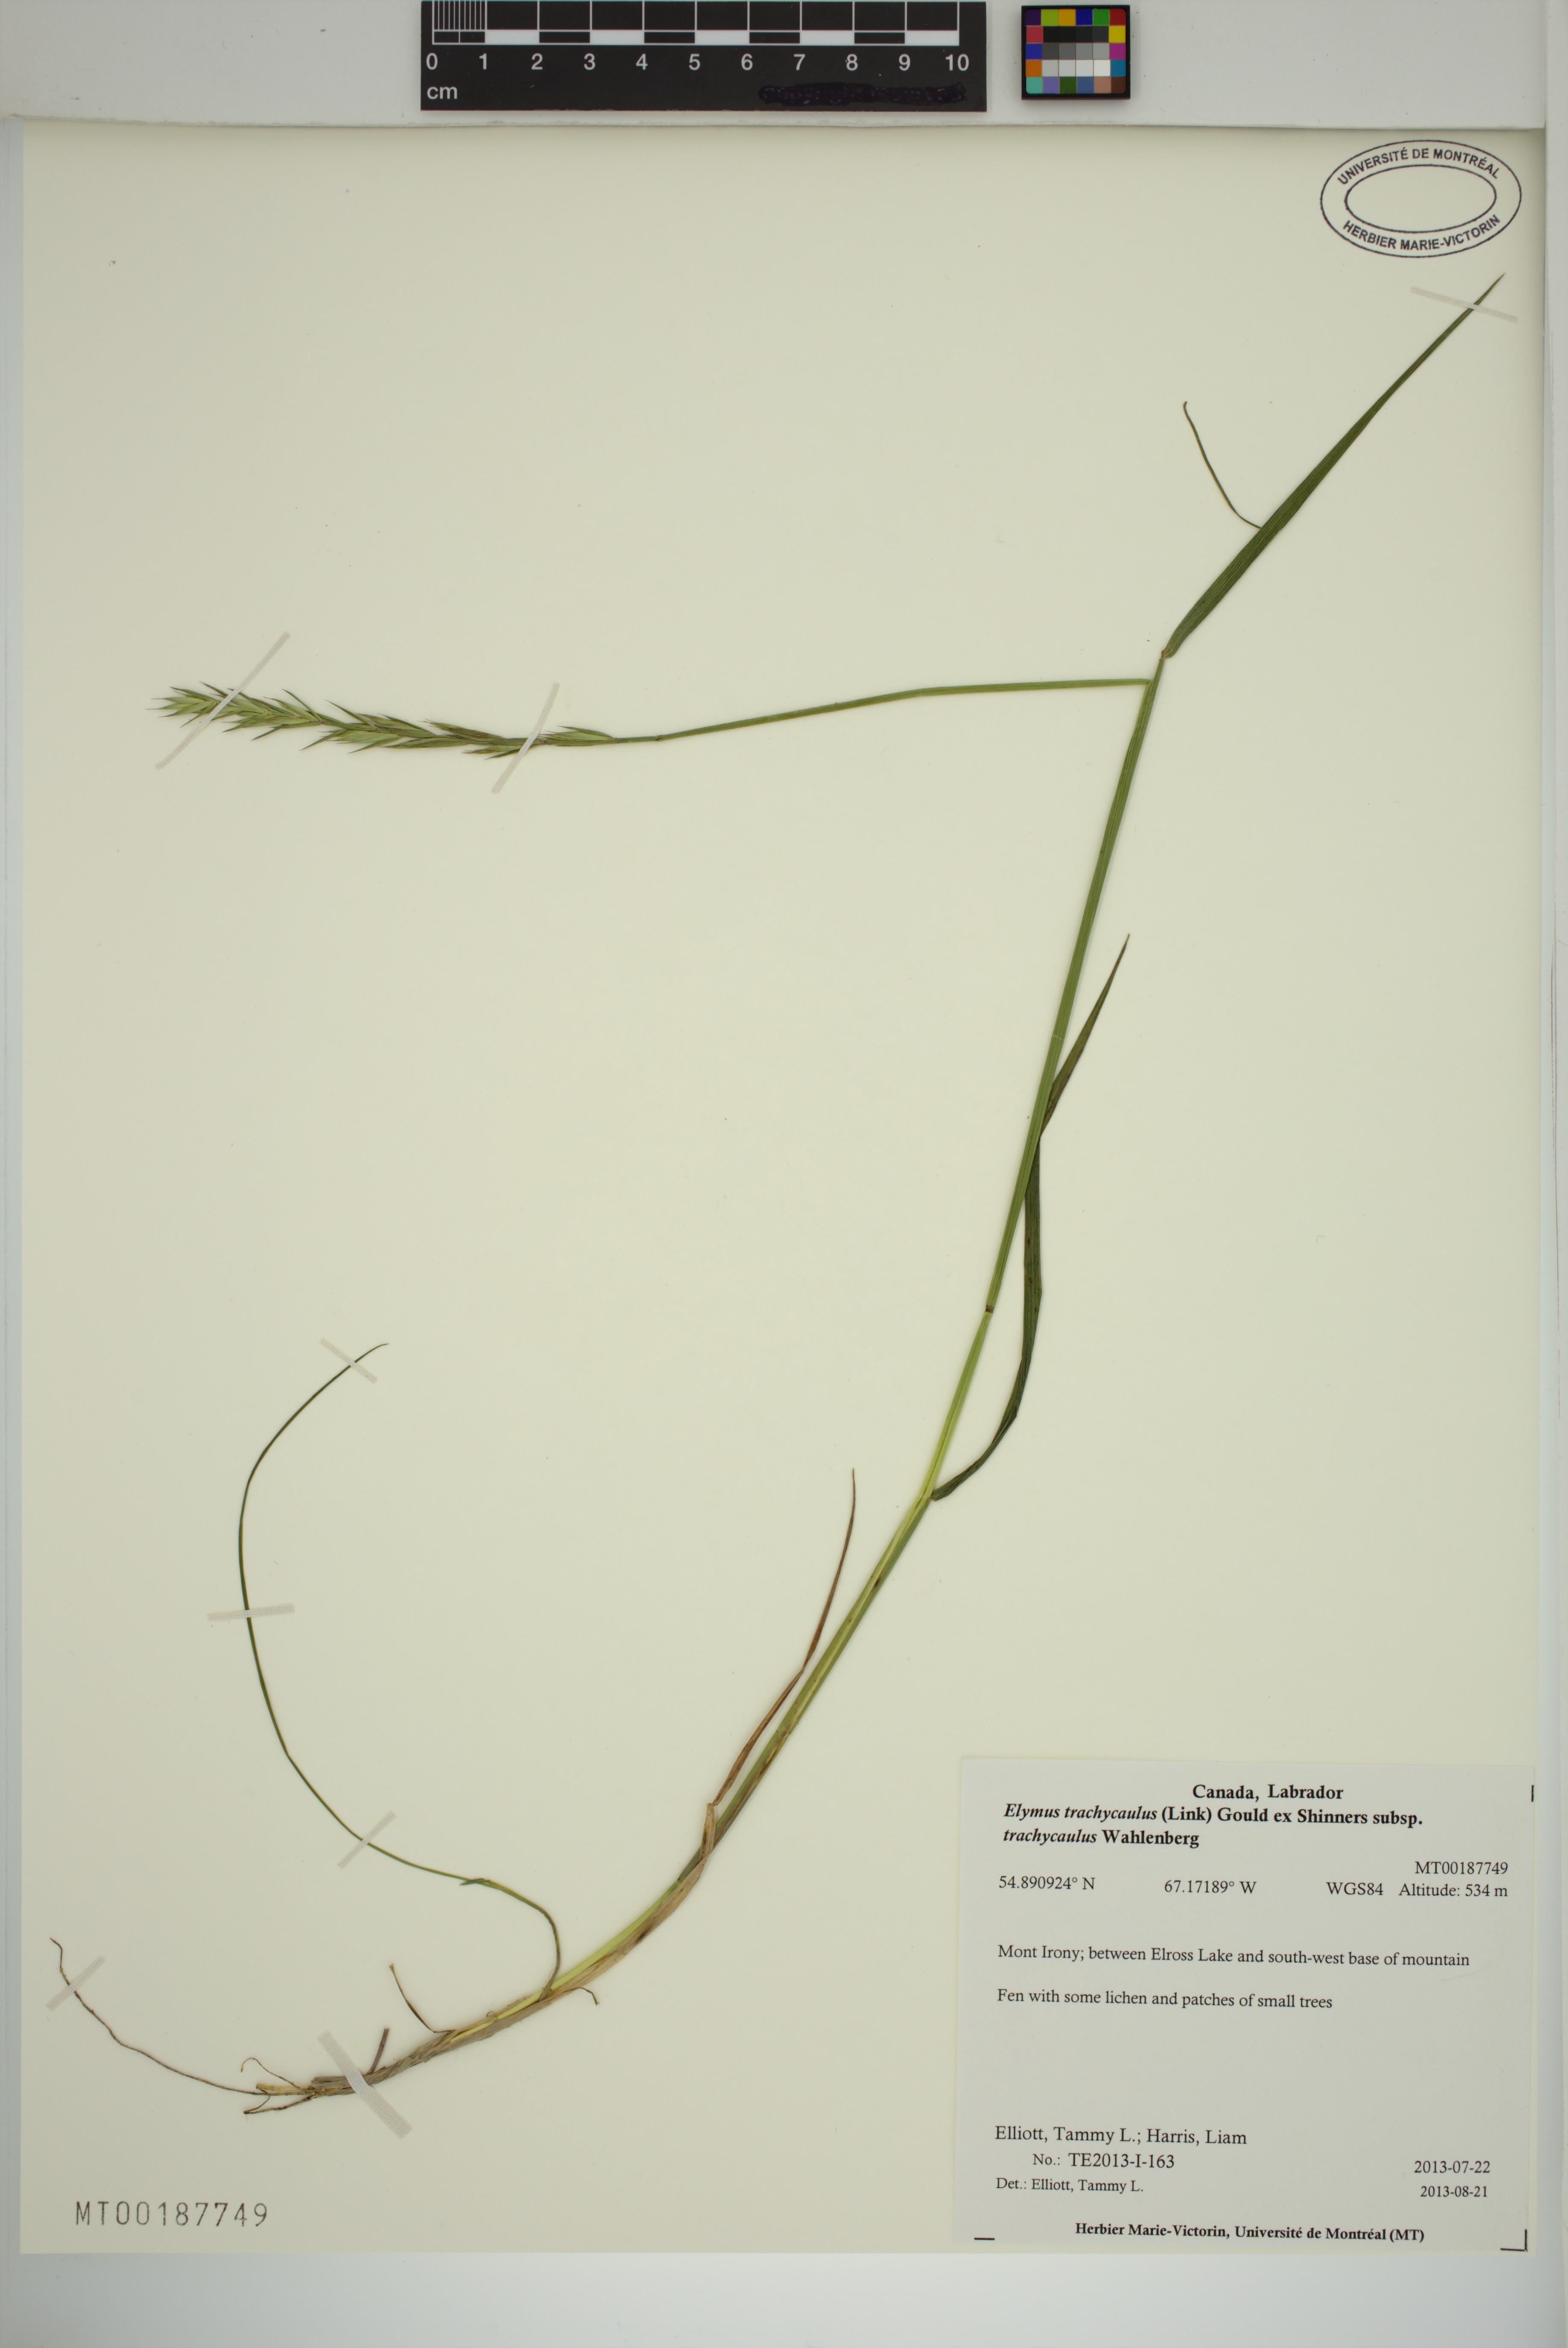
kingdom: Plantae
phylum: Tracheophyta
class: Liliopsida
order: Poales
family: Poaceae
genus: Elymus
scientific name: Elymus violaceus
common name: Arctic wheatgrass
